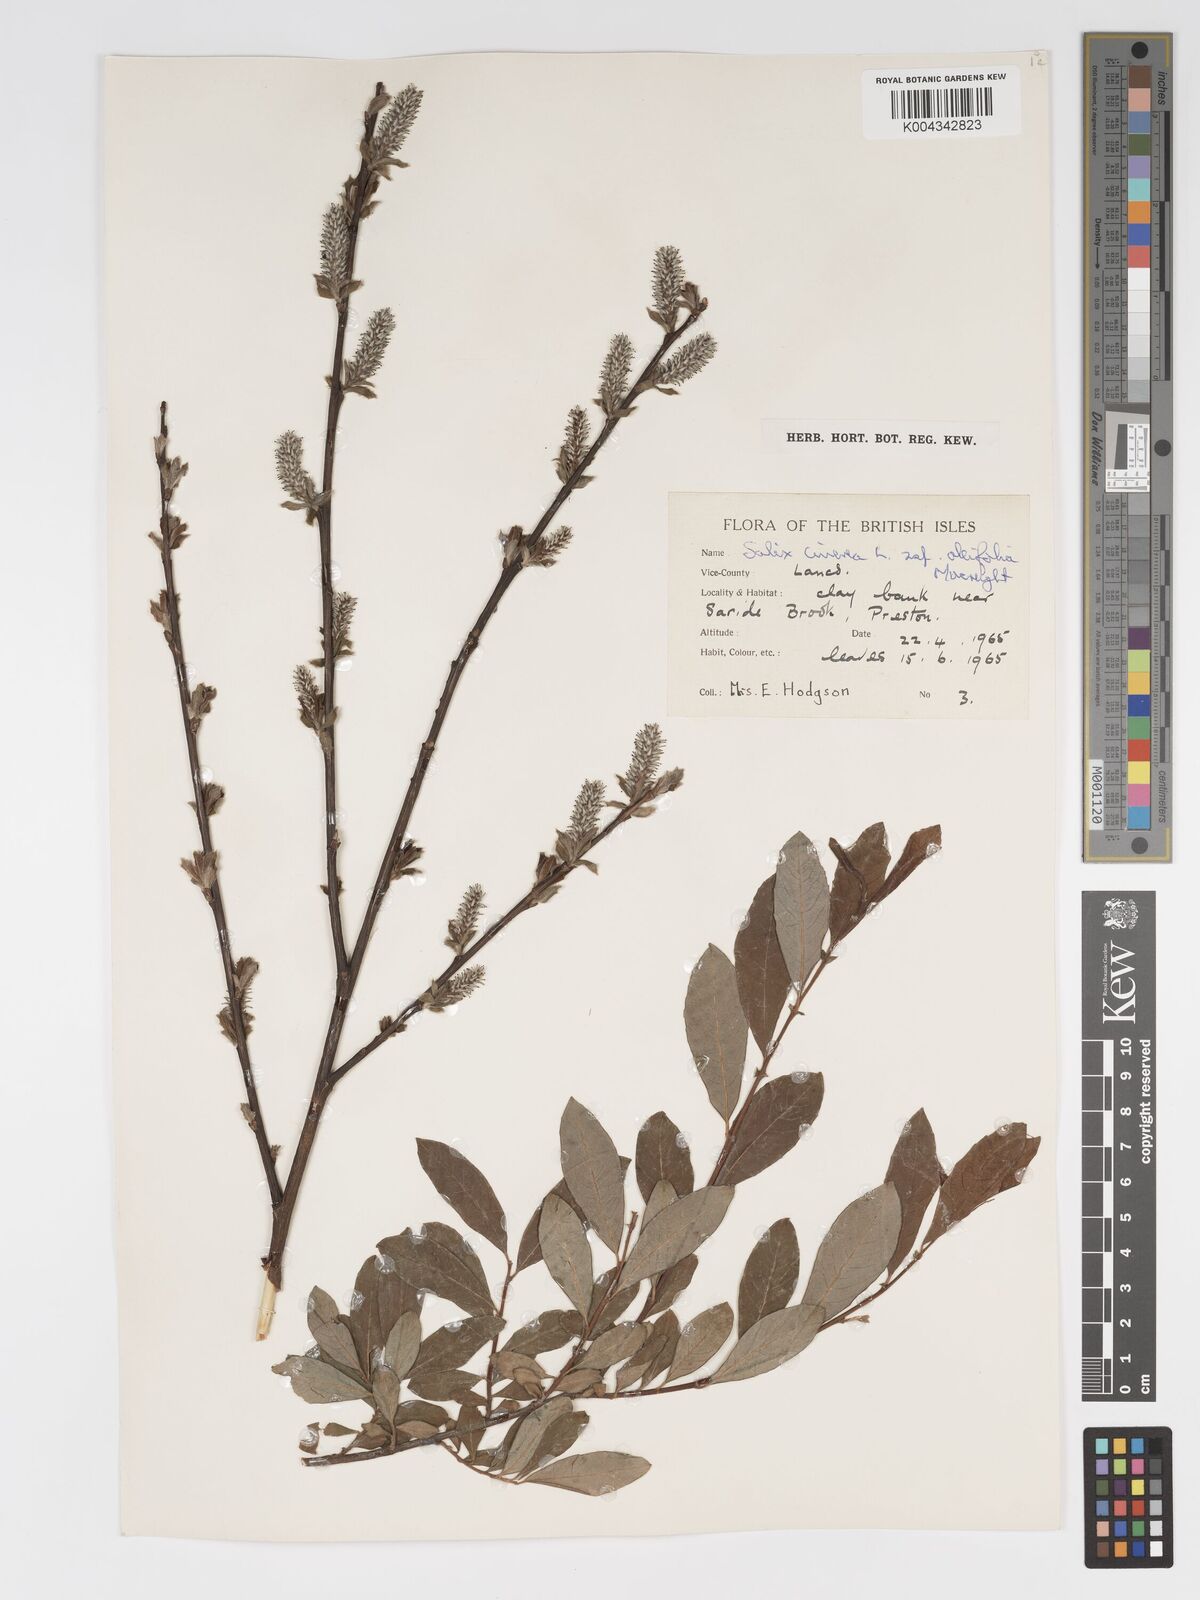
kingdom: Plantae
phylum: Tracheophyta
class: Magnoliopsida
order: Malpighiales
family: Salicaceae
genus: Salix
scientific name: Salix atrocinerea
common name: Rusty willow
